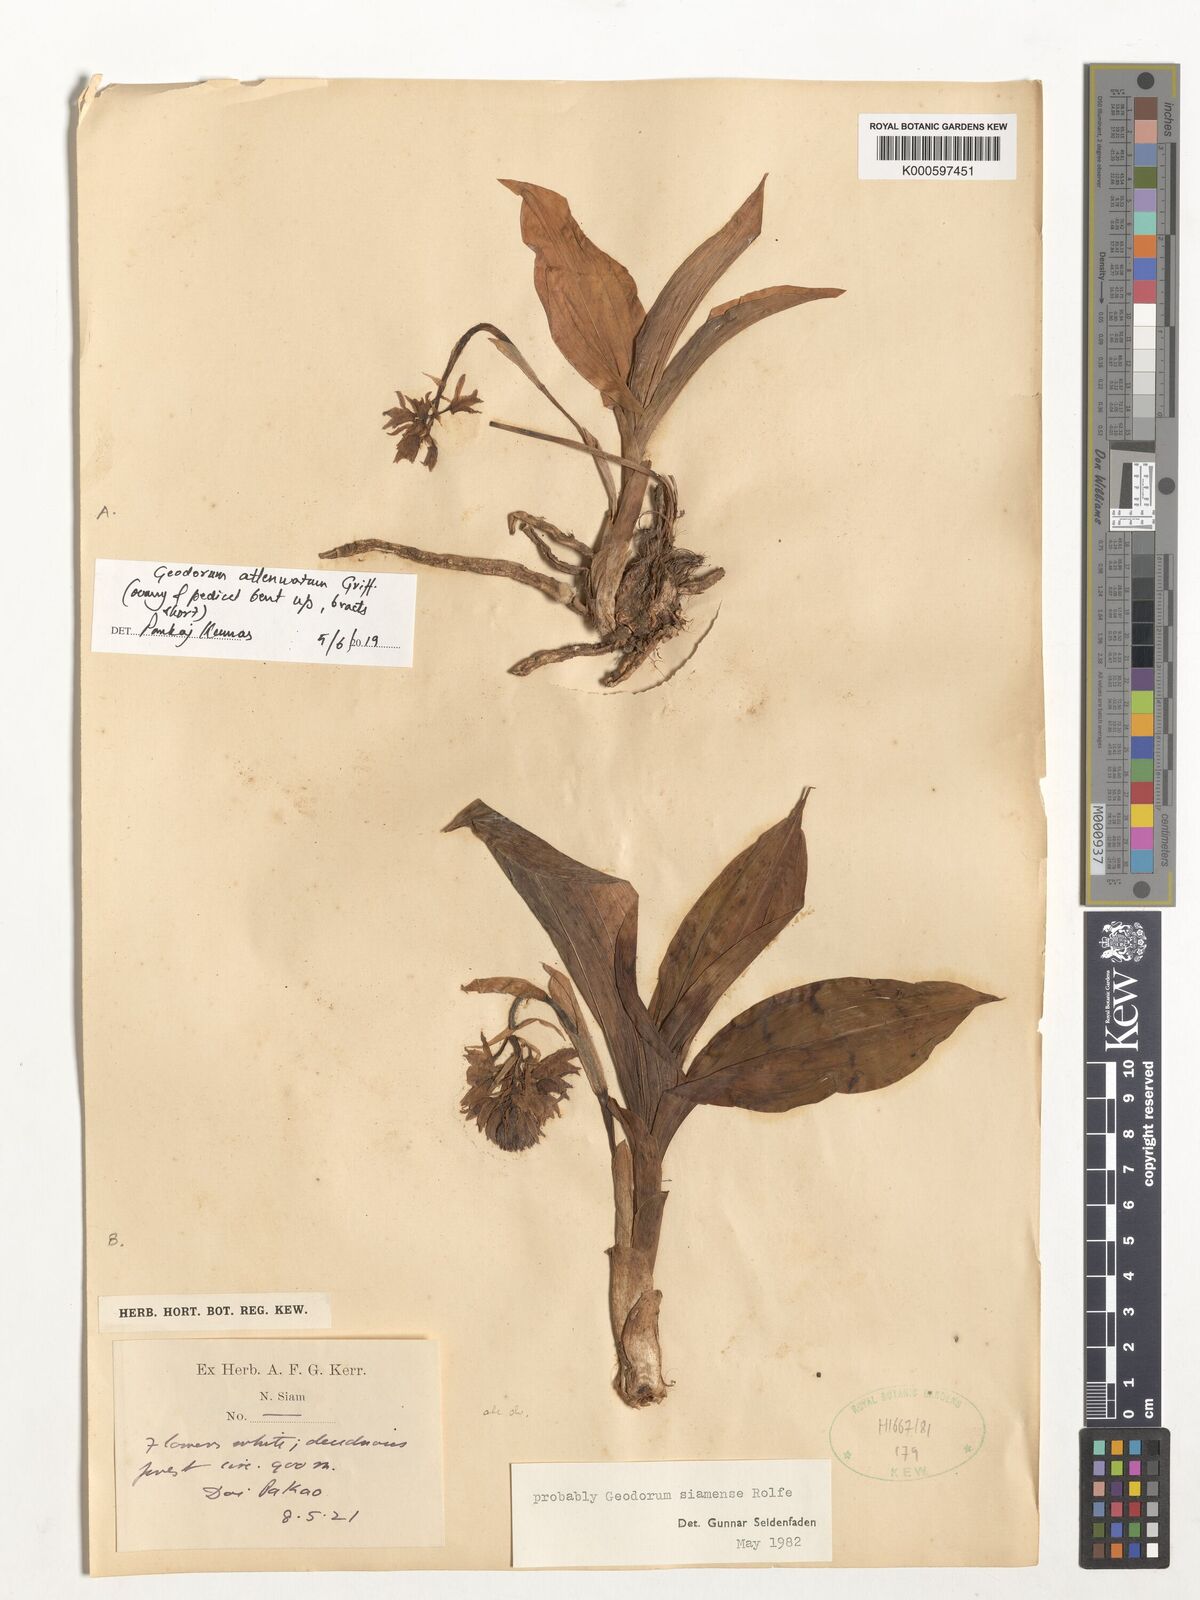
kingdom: Plantae
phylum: Tracheophyta
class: Liliopsida
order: Asparagales
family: Orchidaceae
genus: Eulophia
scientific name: Eulophia exigua
